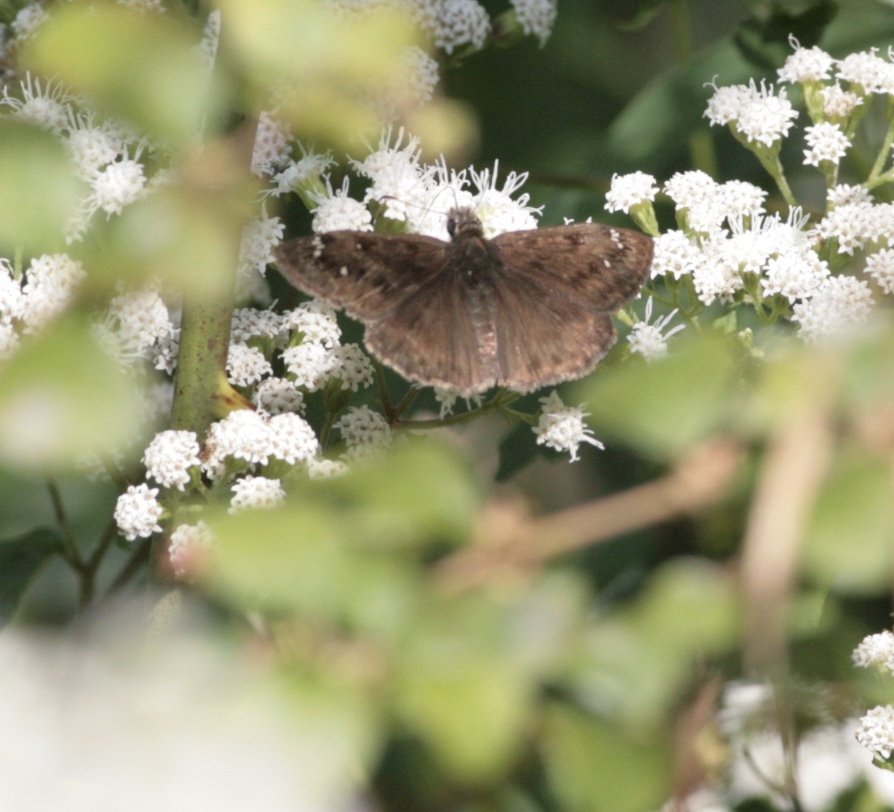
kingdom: Animalia
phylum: Arthropoda
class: Insecta
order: Lepidoptera
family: Hesperiidae
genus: Gesta
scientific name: Gesta
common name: Horace's Duskywing
